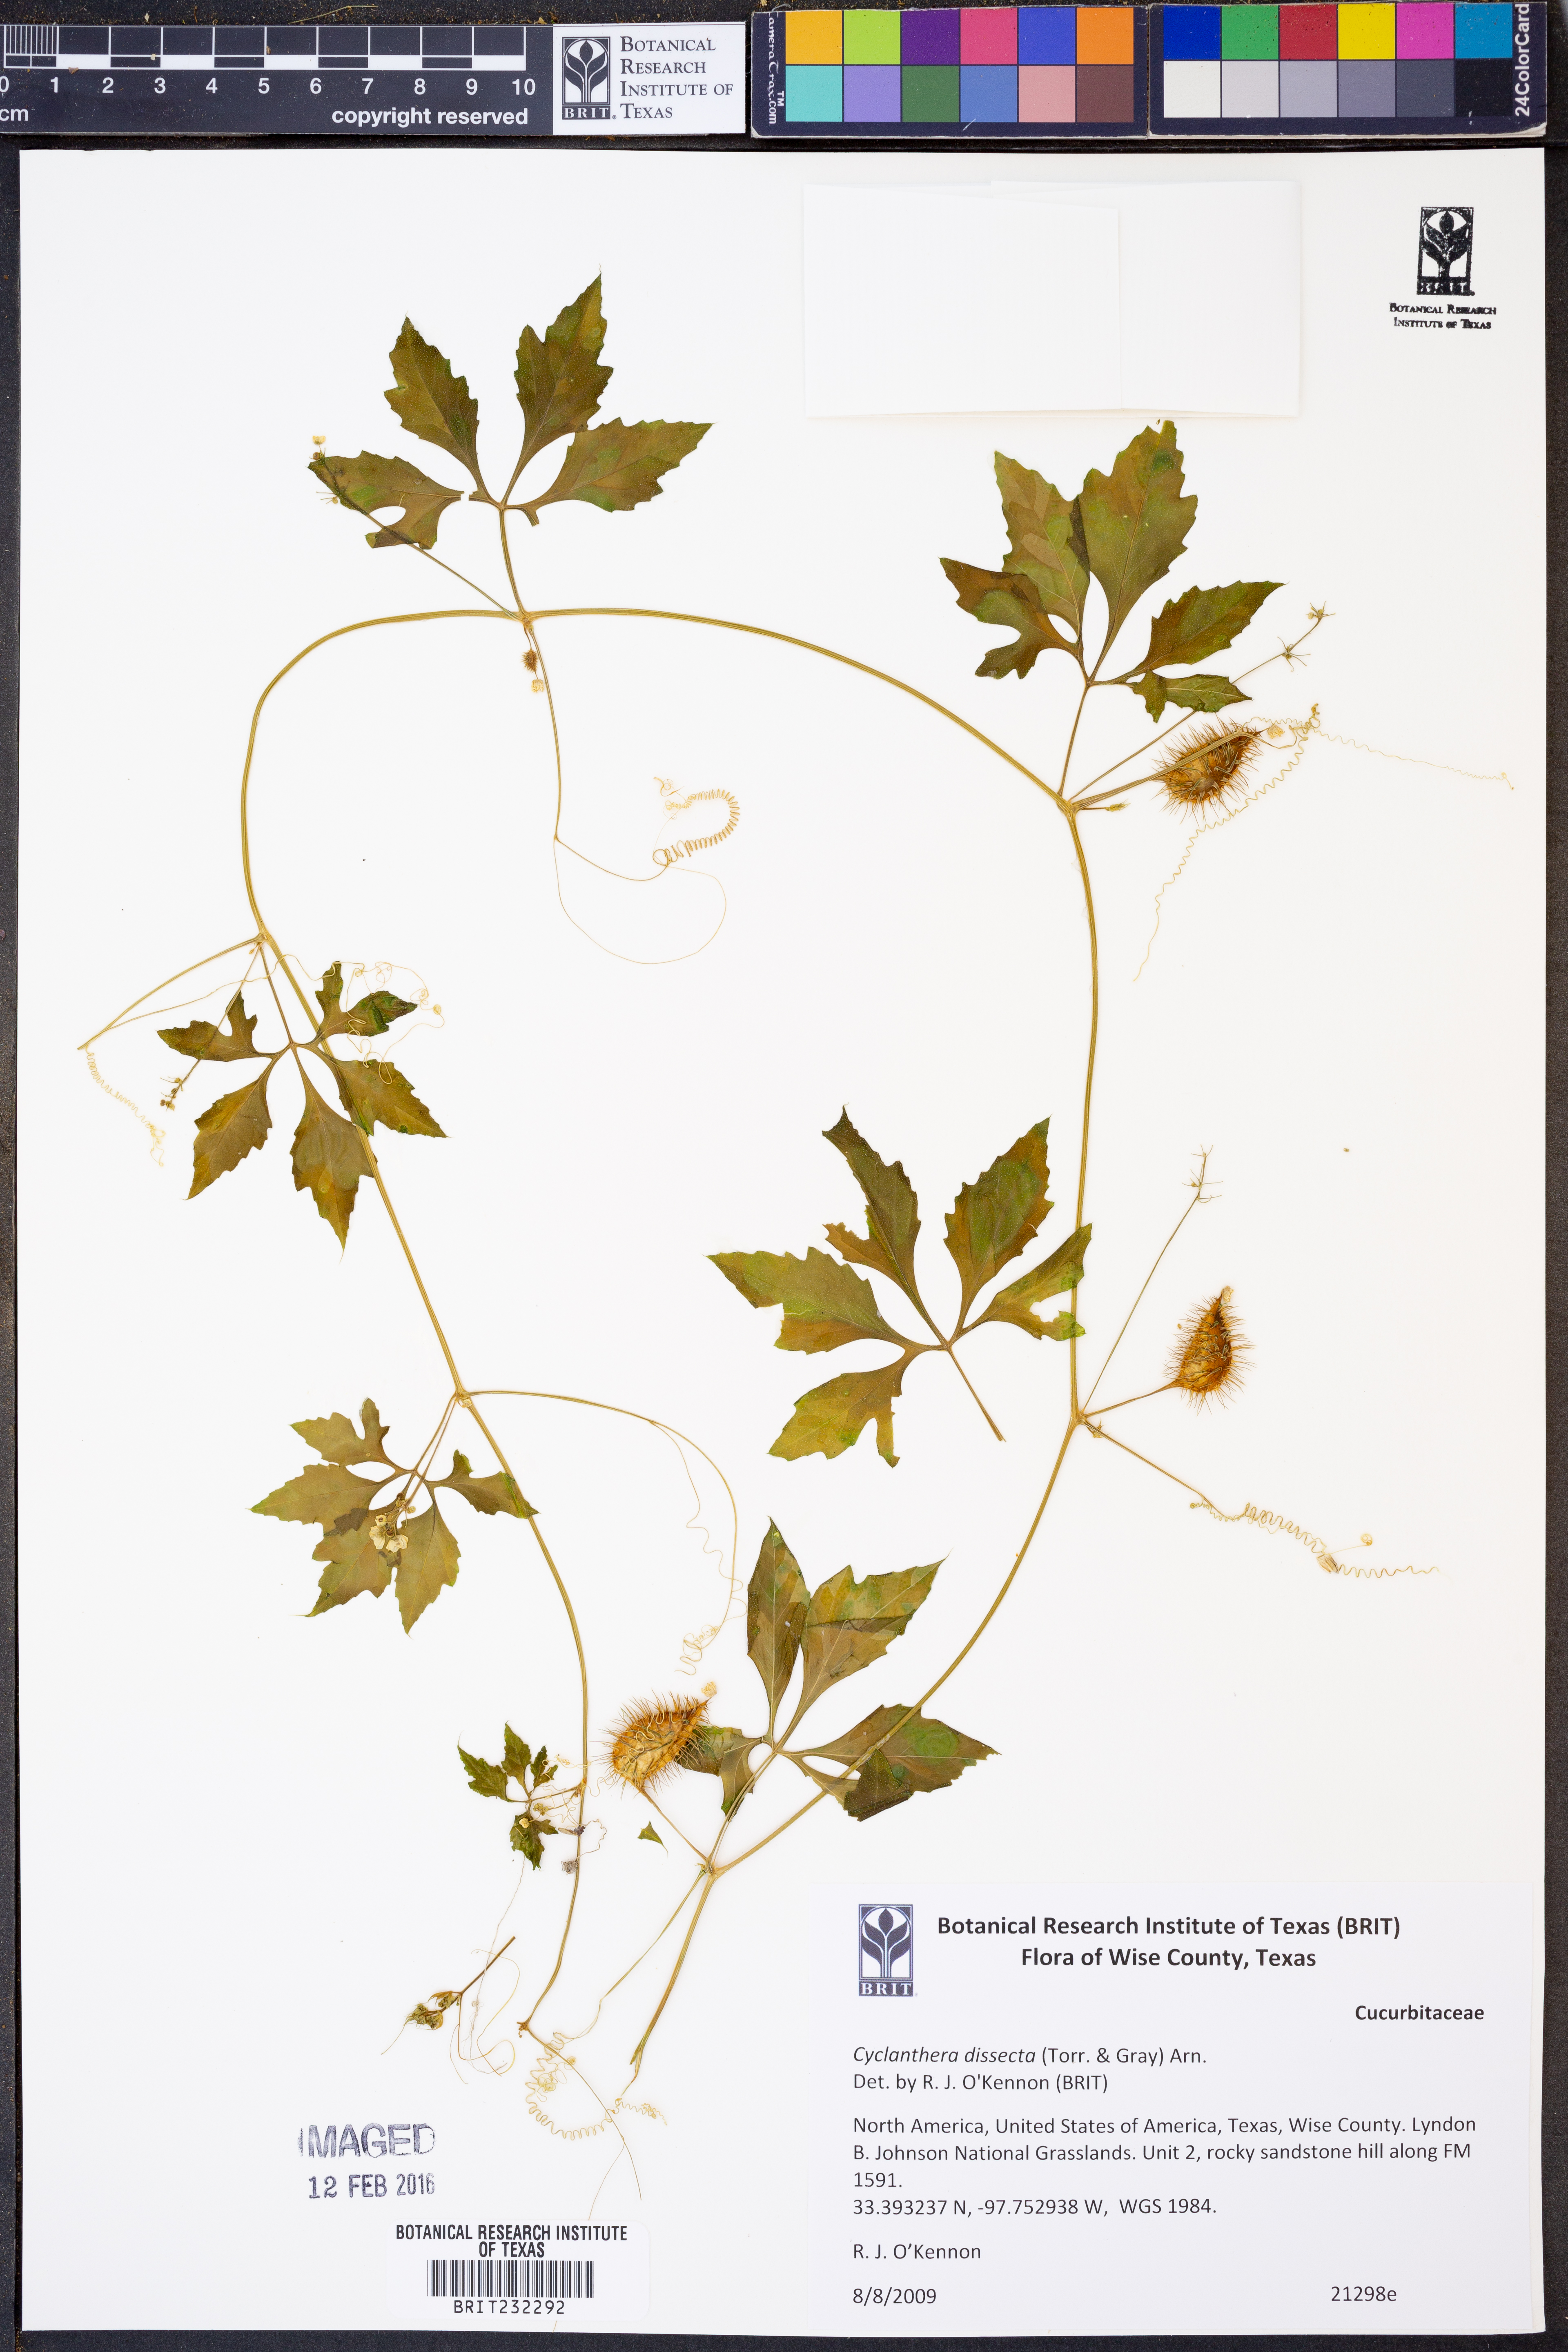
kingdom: Plantae
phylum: Tracheophyta
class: Magnoliopsida
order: Cucurbitales
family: Cucurbitaceae
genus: Cyclanthera
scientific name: Cyclanthera dissecta
